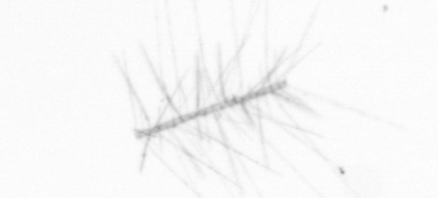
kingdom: Chromista
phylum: Ochrophyta
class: Bacillariophyceae
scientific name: Bacillariophyceae
